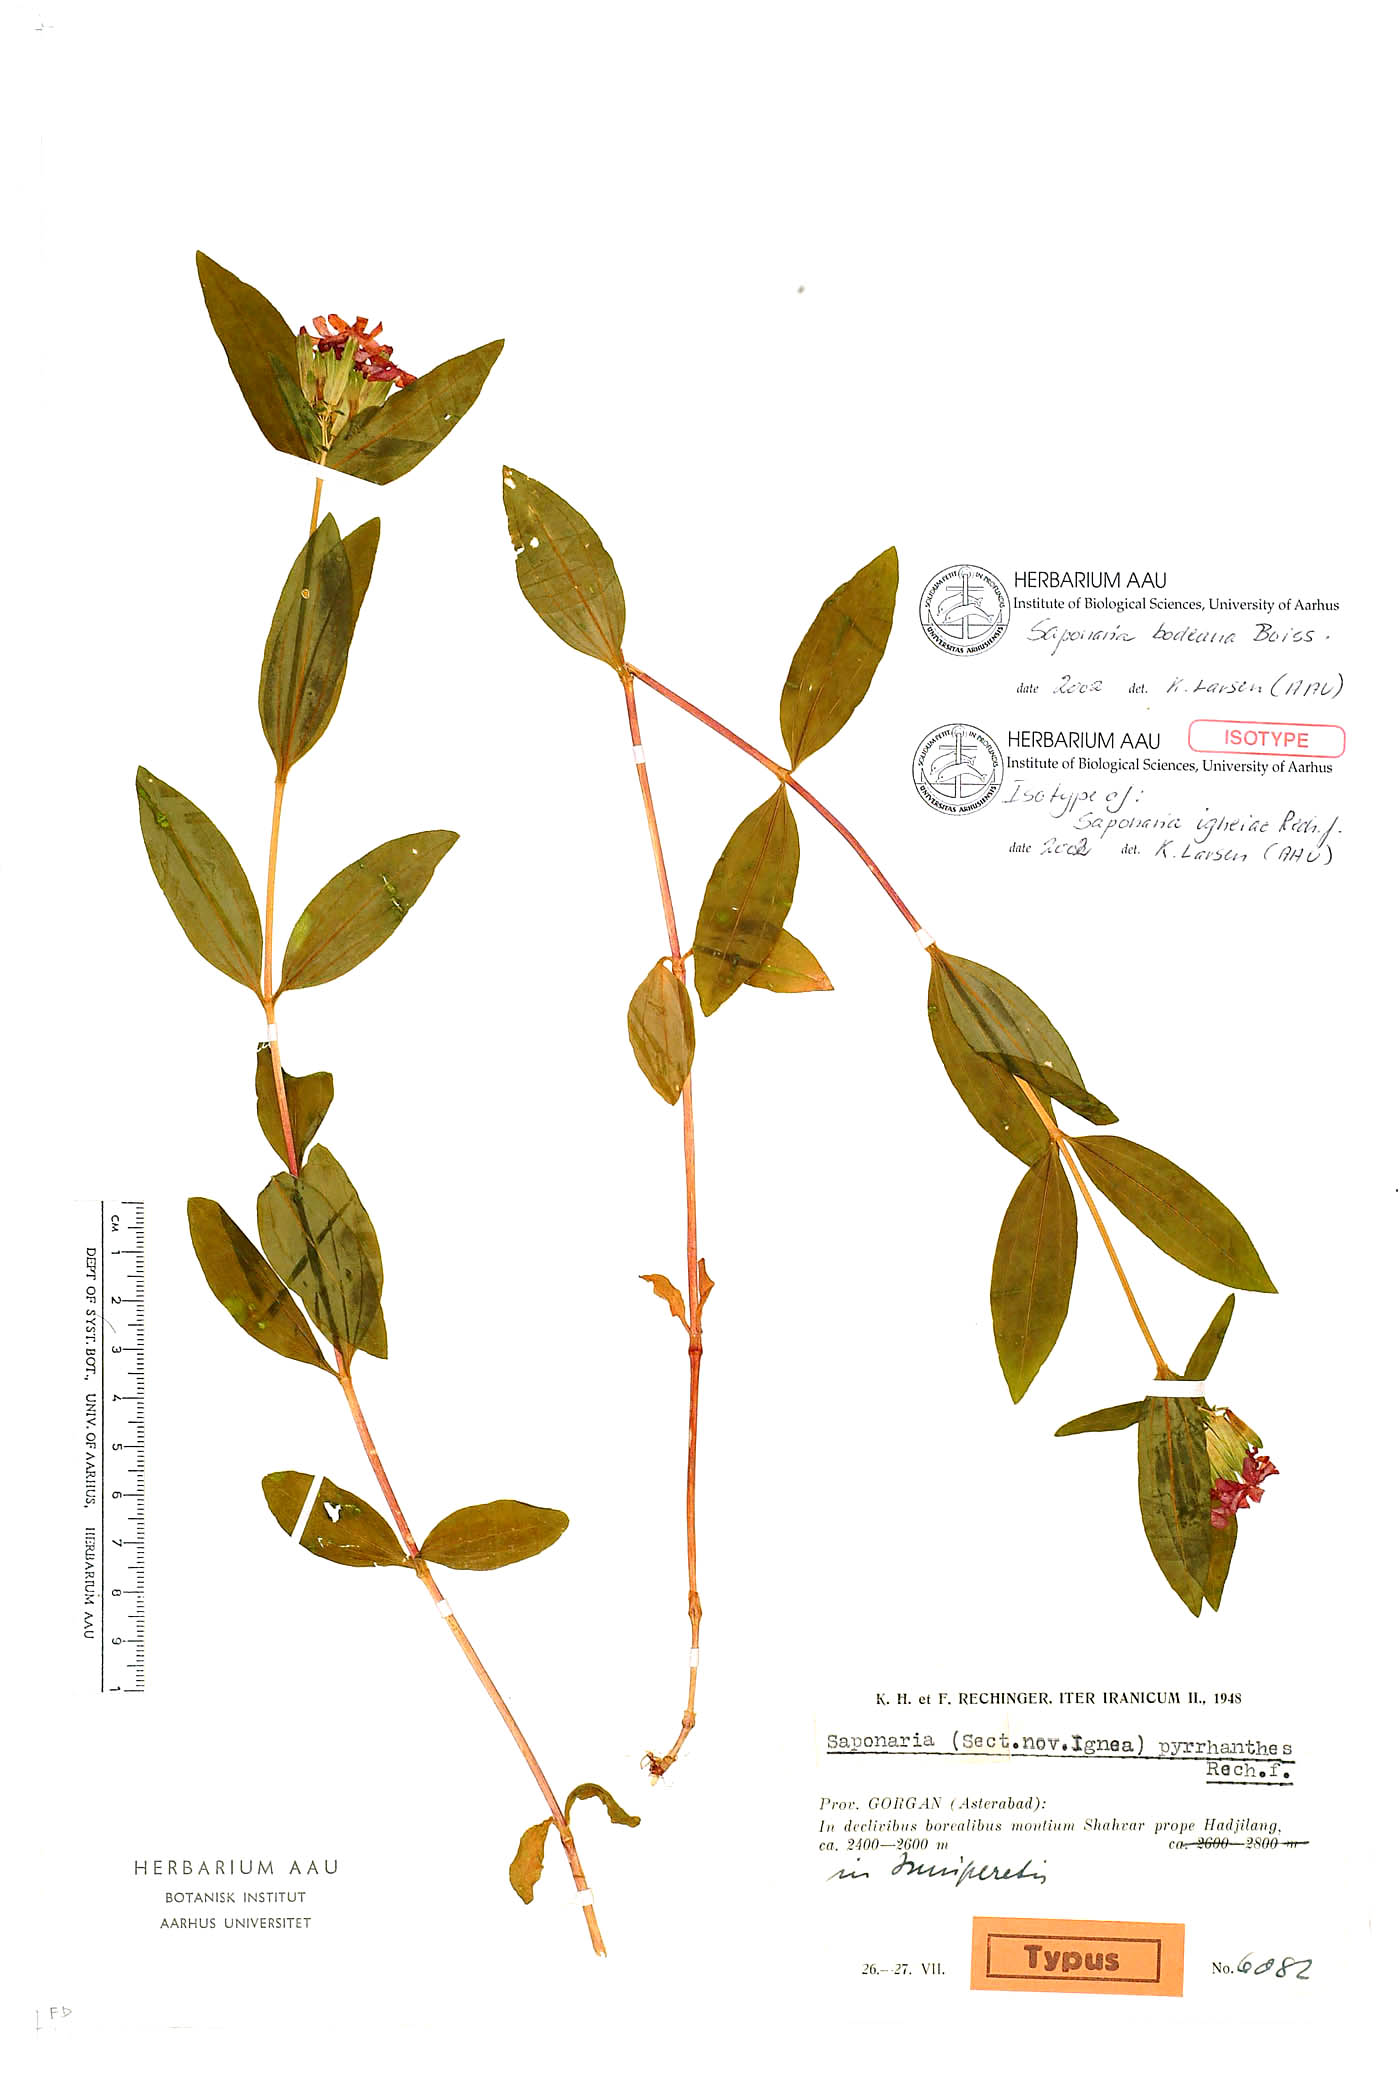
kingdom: Plantae
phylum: Tracheophyta
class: Magnoliopsida
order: Caryophyllales
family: Caryophyllaceae
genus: Saponaria
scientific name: Saponaria bodeana
